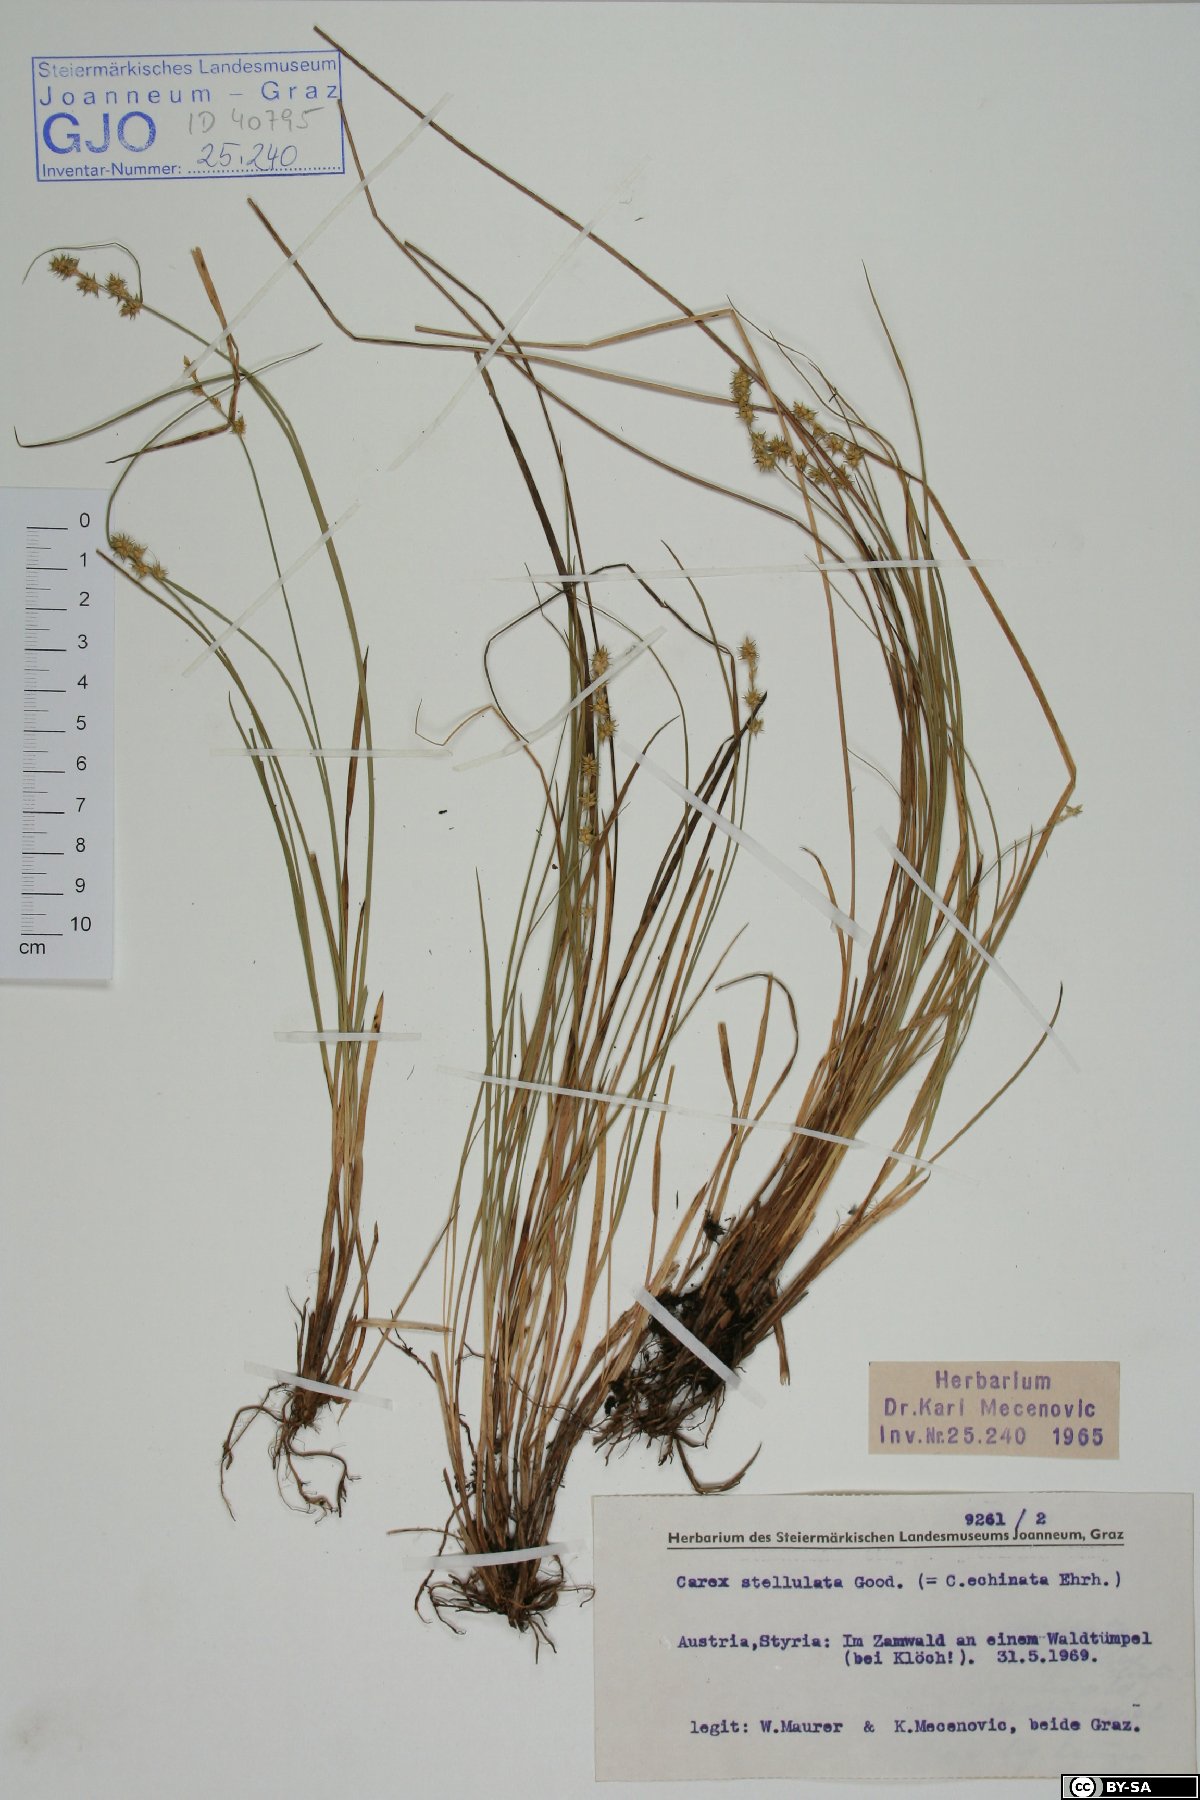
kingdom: Plantae
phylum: Tracheophyta
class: Liliopsida
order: Poales
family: Cyperaceae
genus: Carex
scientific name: Carex echinata
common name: Star sedge
